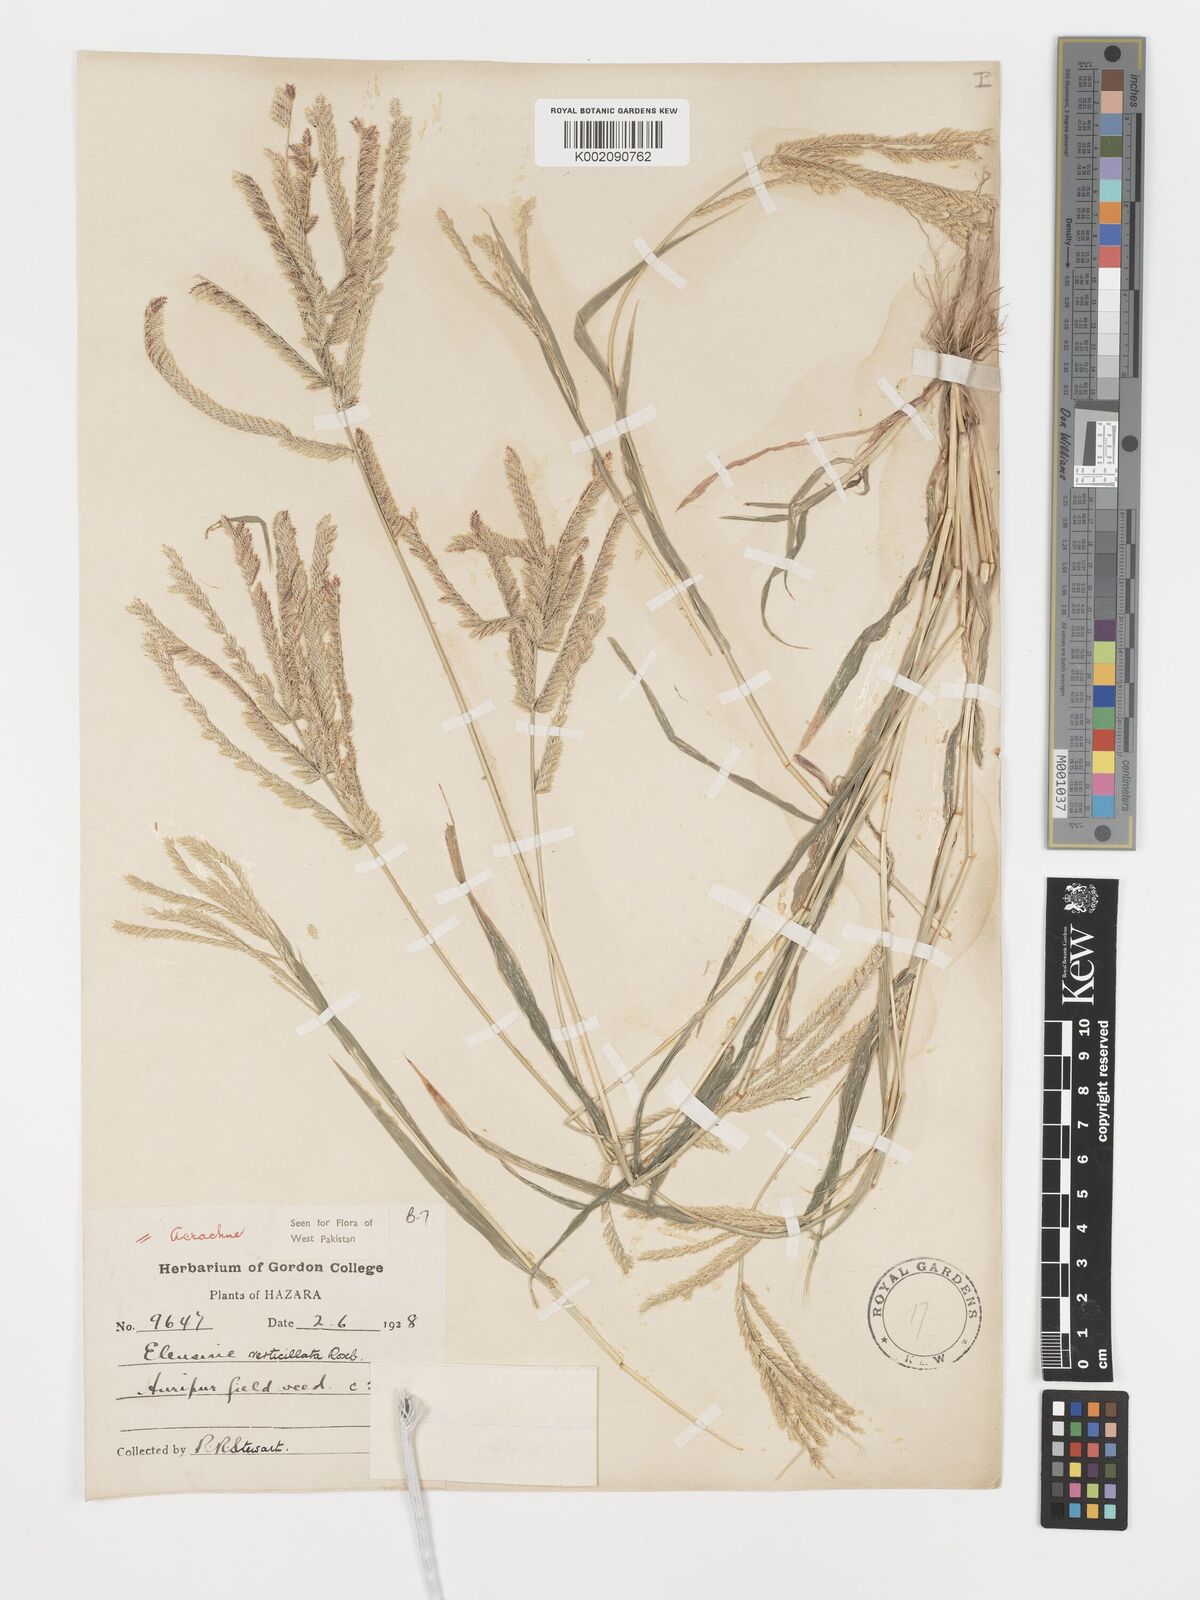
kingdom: Plantae
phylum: Tracheophyta
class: Liliopsida
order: Poales
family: Poaceae
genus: Acrachne
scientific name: Acrachne racemosa
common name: Goosegrass
